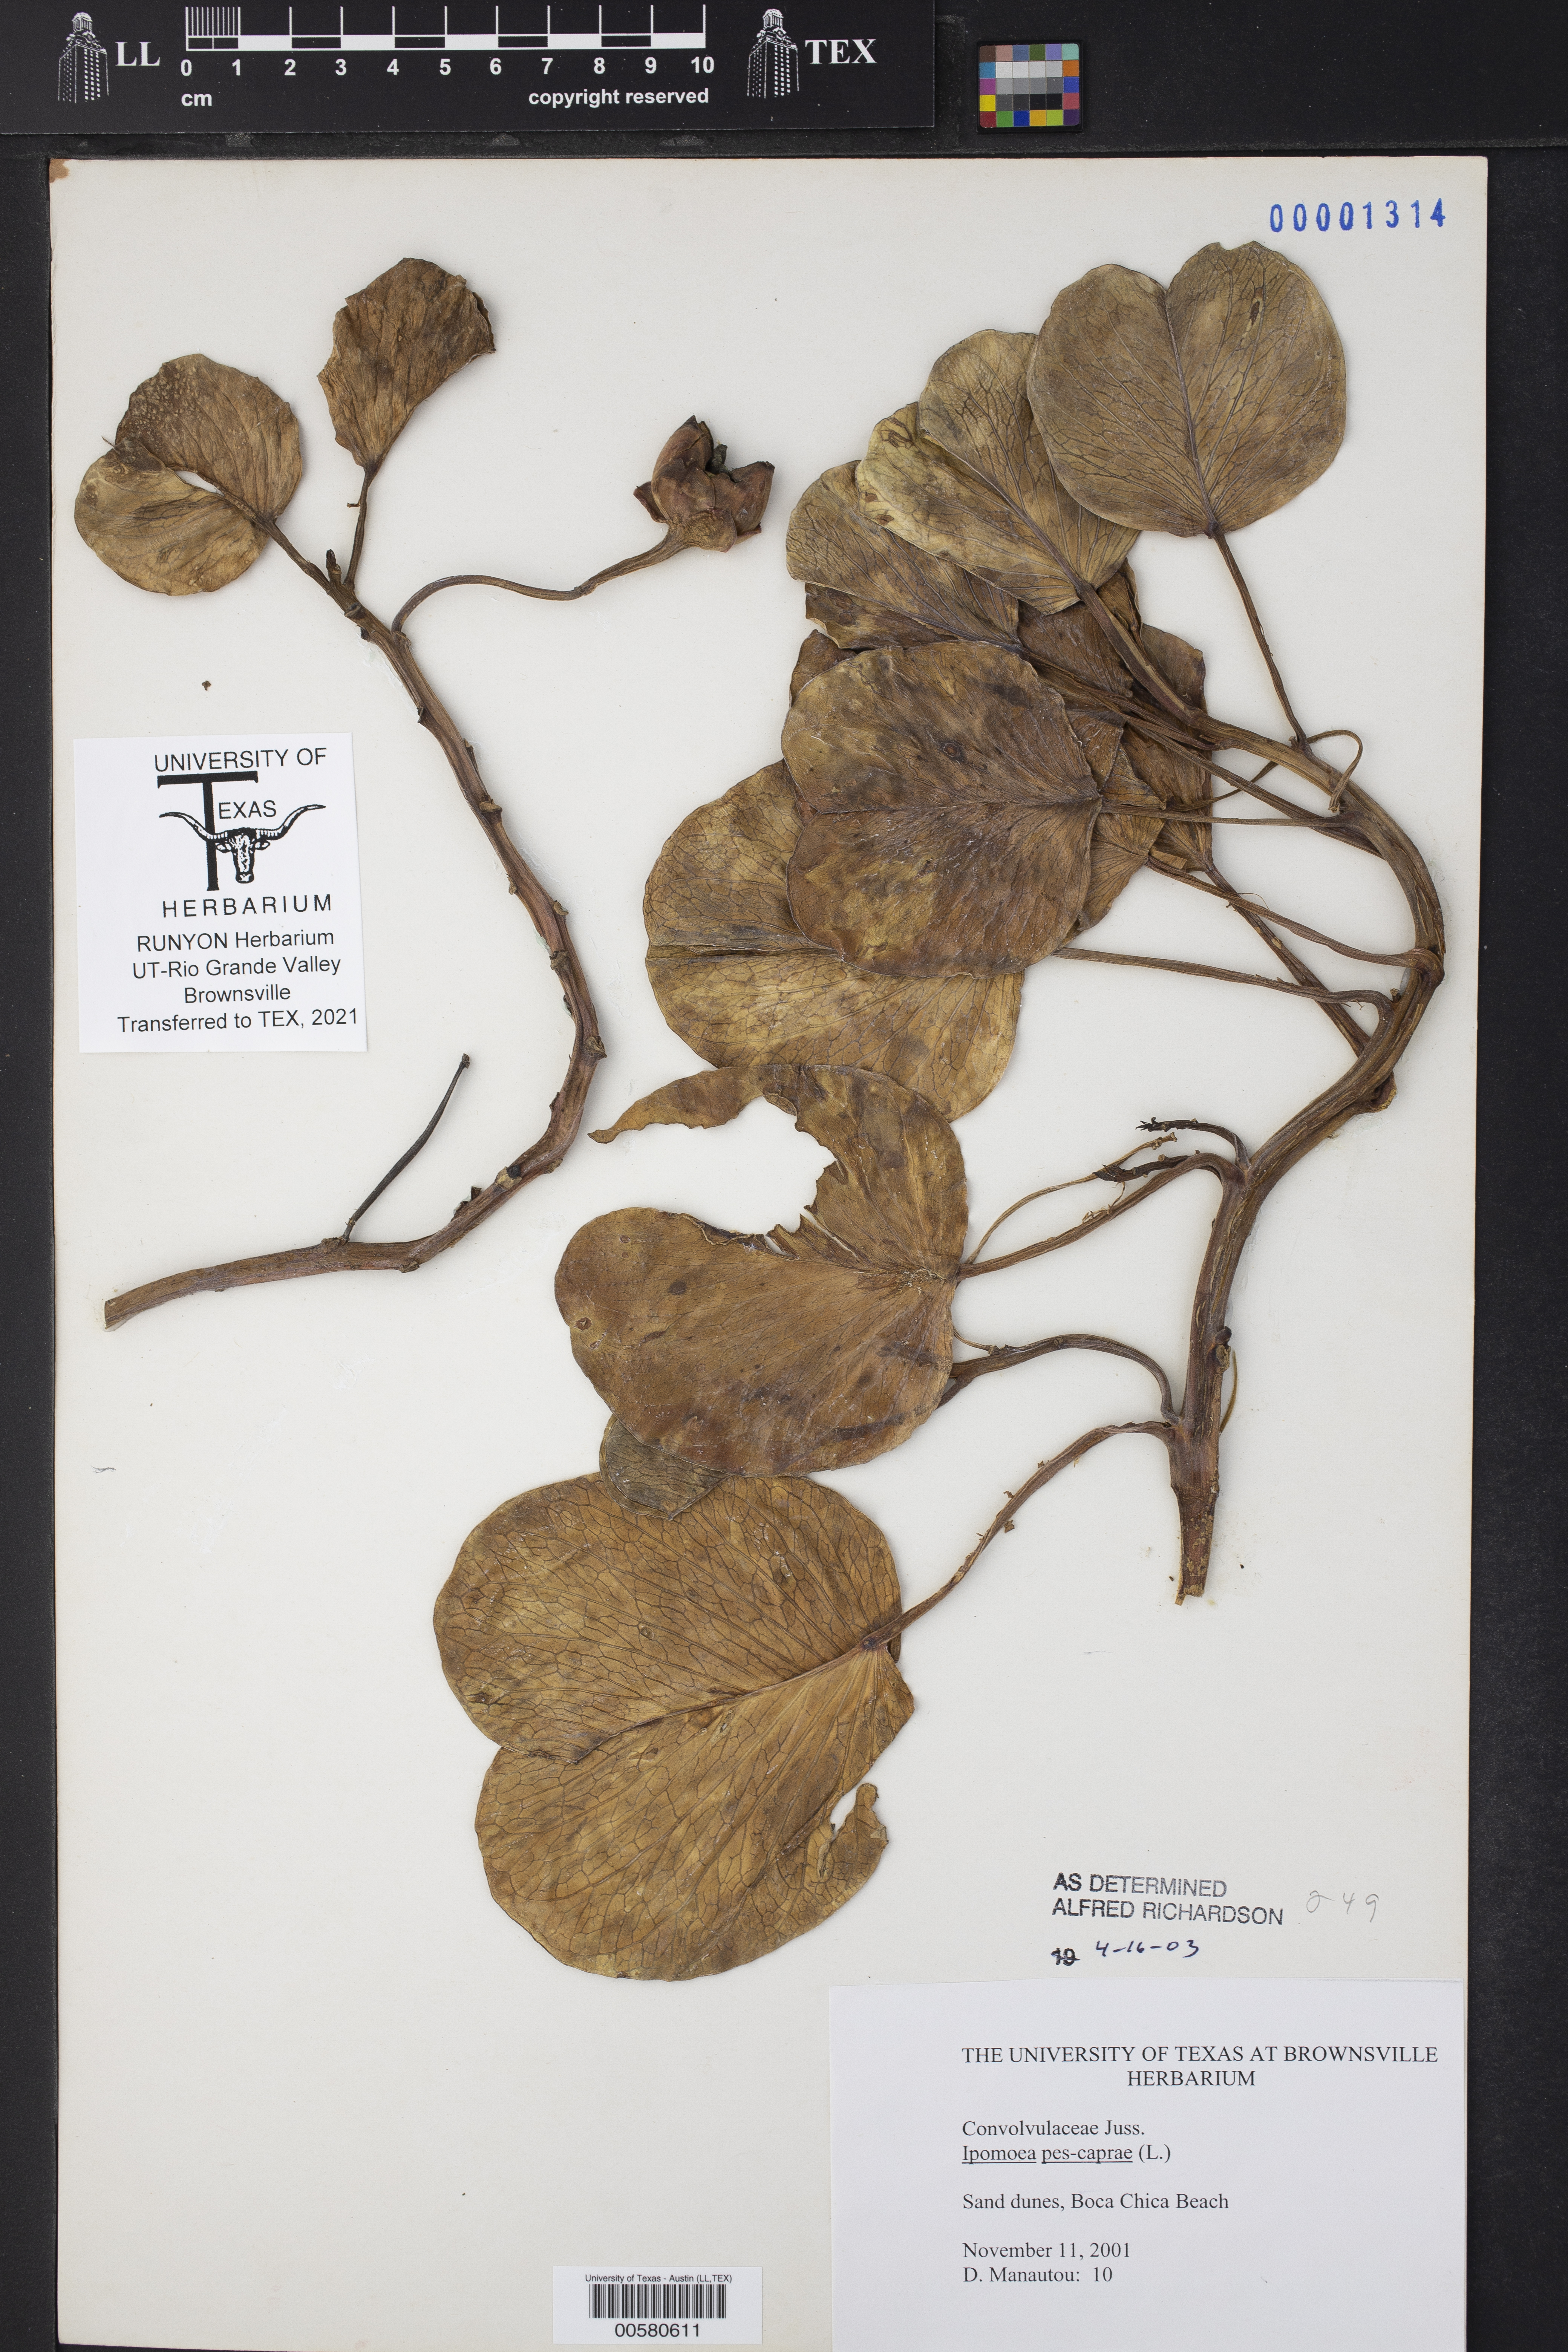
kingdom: Plantae
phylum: Tracheophyta
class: Magnoliopsida
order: Solanales
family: Convolvulaceae
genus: Ipomoea
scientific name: Ipomoea pes-caprae
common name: Beach morning glory
